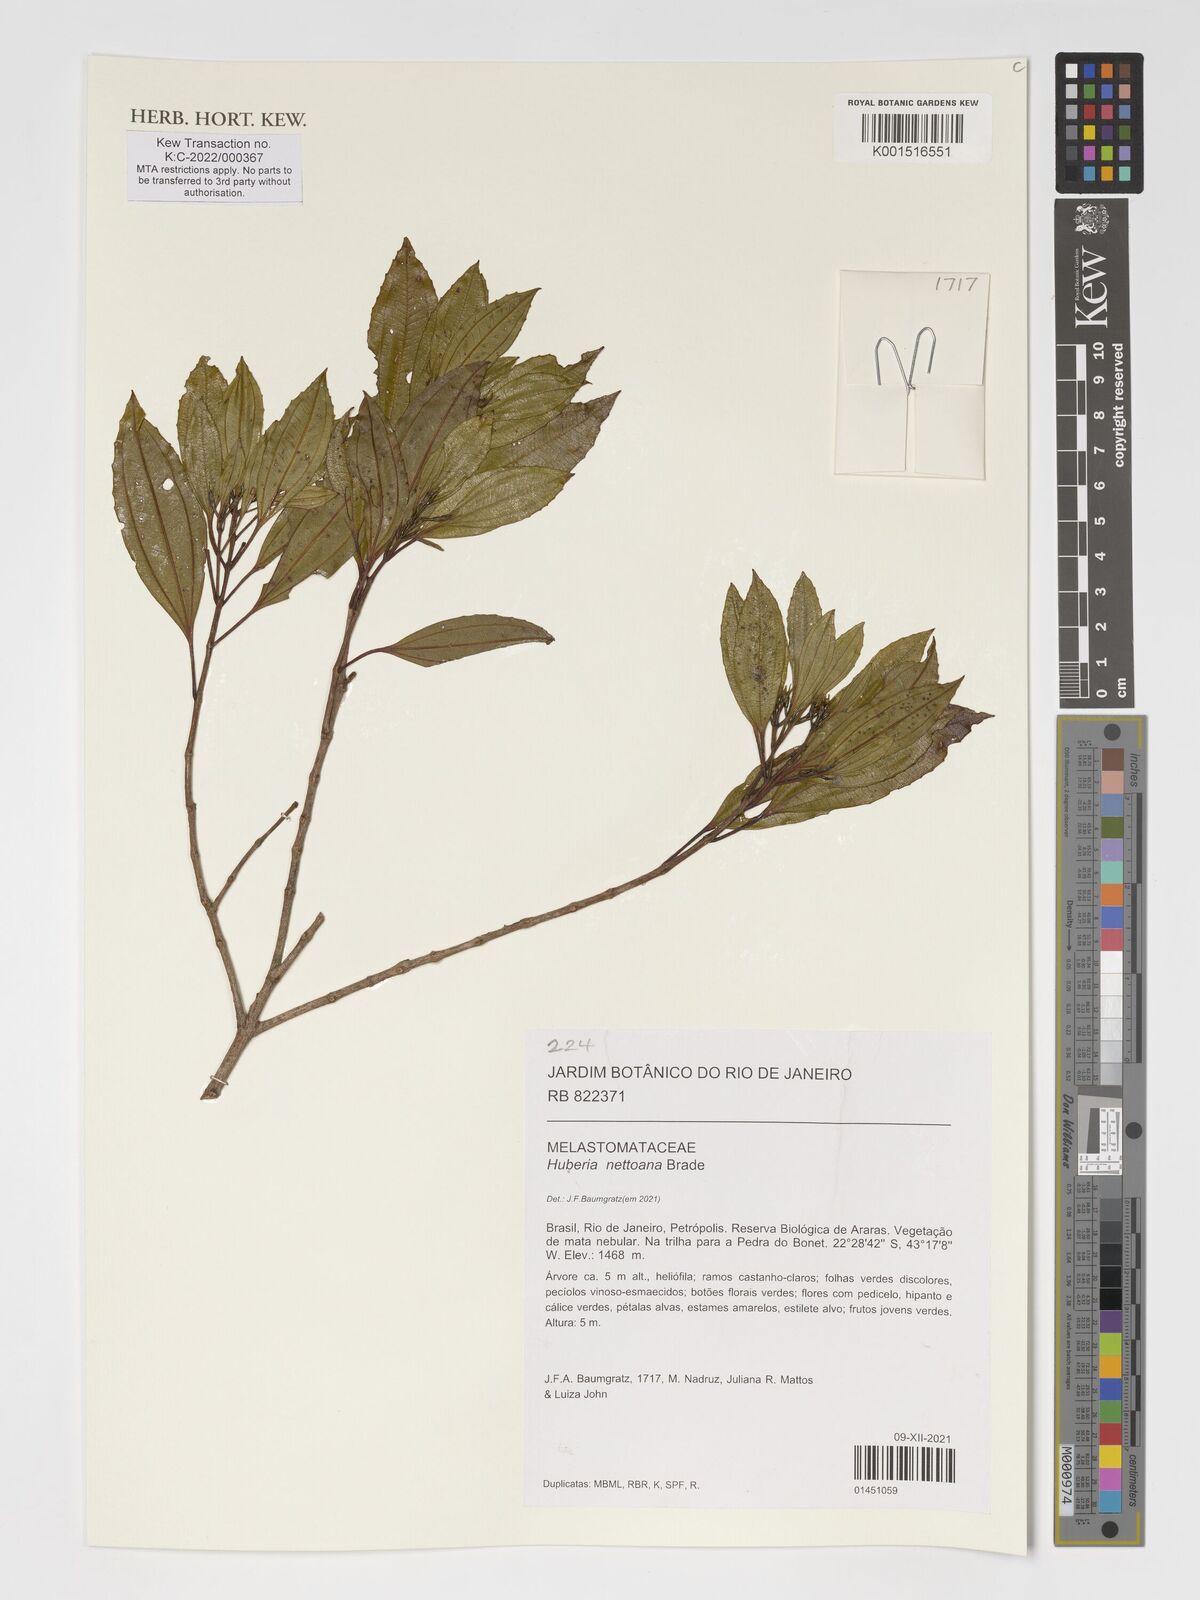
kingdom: Plantae
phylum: Tracheophyta
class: Magnoliopsida
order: Myrtales
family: Melastomataceae
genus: Huberia
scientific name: Huberia nettoana
